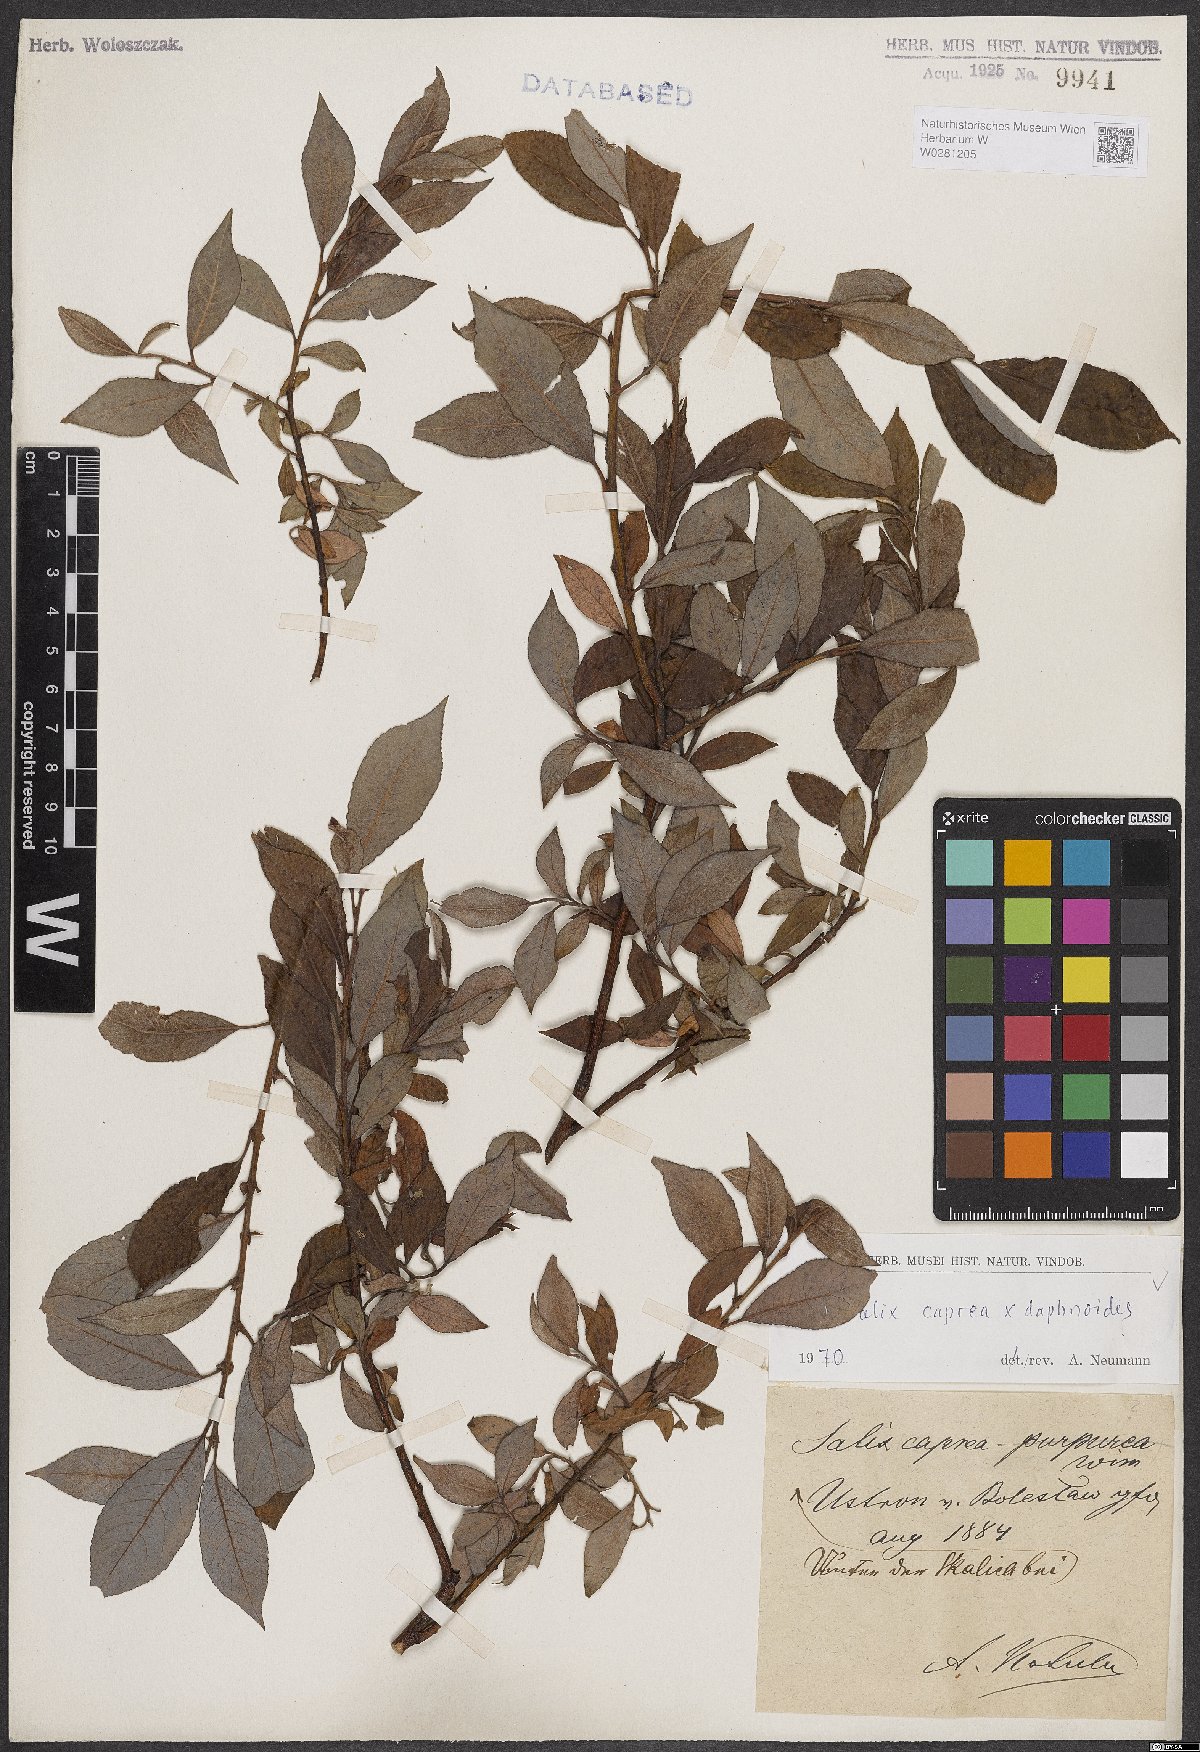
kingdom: Plantae
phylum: Tracheophyta
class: Magnoliopsida
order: Malpighiales
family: Salicaceae
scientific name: Salicaceae
